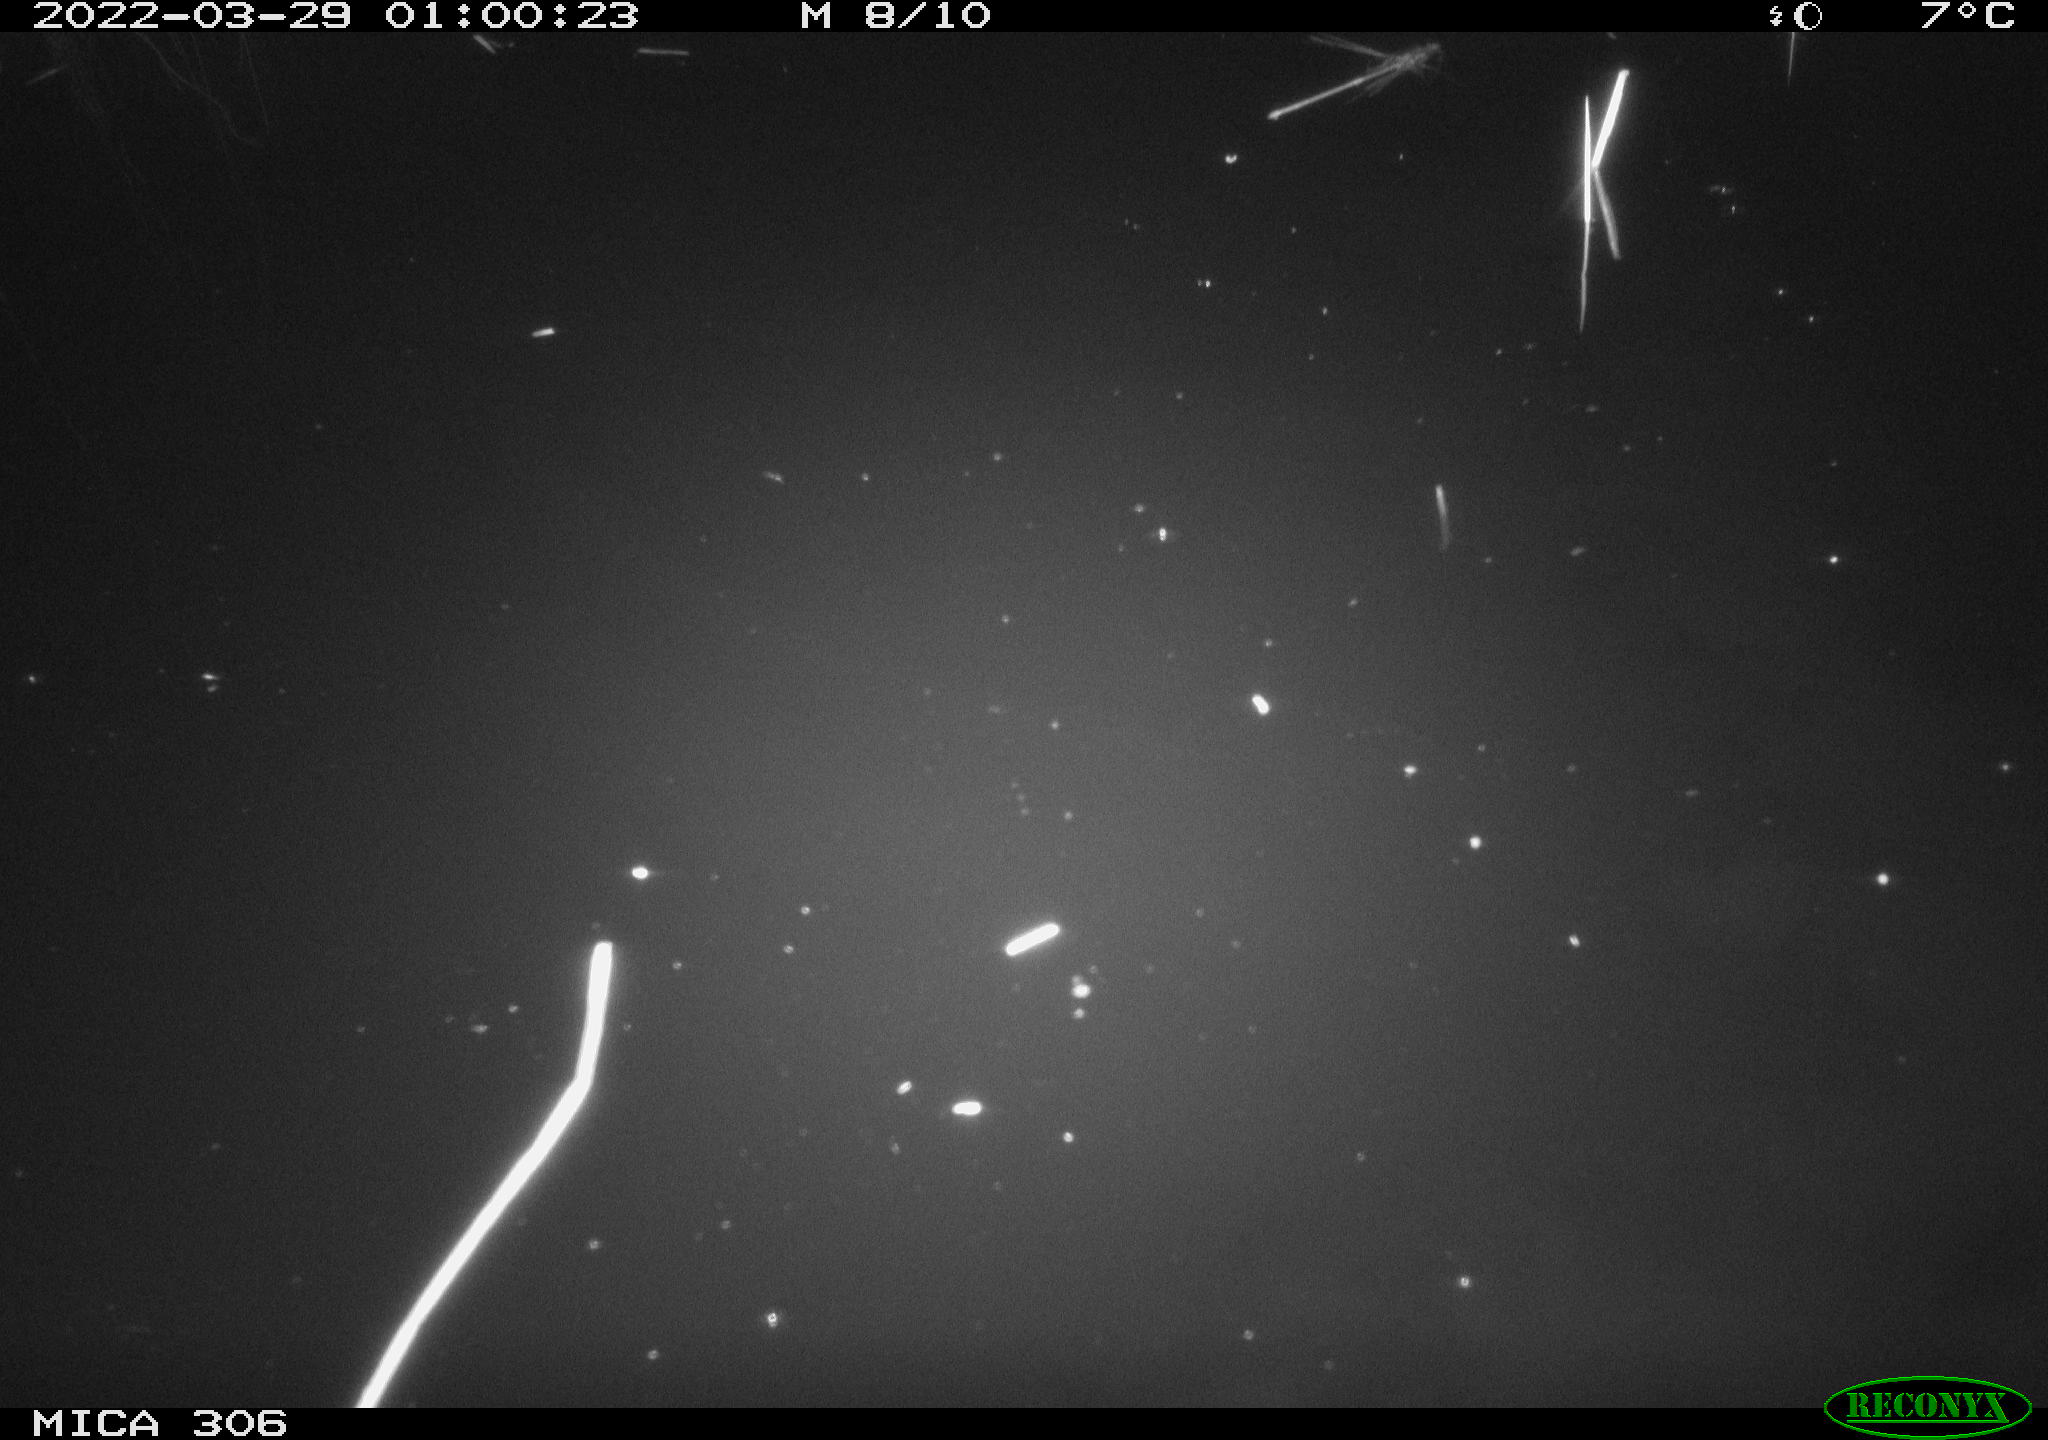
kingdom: Animalia
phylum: Chordata
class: Mammalia
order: Rodentia
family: Cricetidae
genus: Ondatra
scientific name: Ondatra zibethicus
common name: Muskrat
